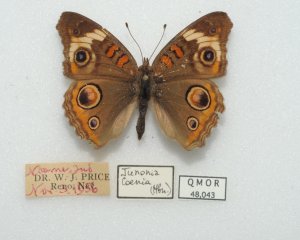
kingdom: Animalia
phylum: Arthropoda
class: Insecta
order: Lepidoptera
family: Nymphalidae
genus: Junonia
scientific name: Junonia coenia
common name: Common Buckeye
